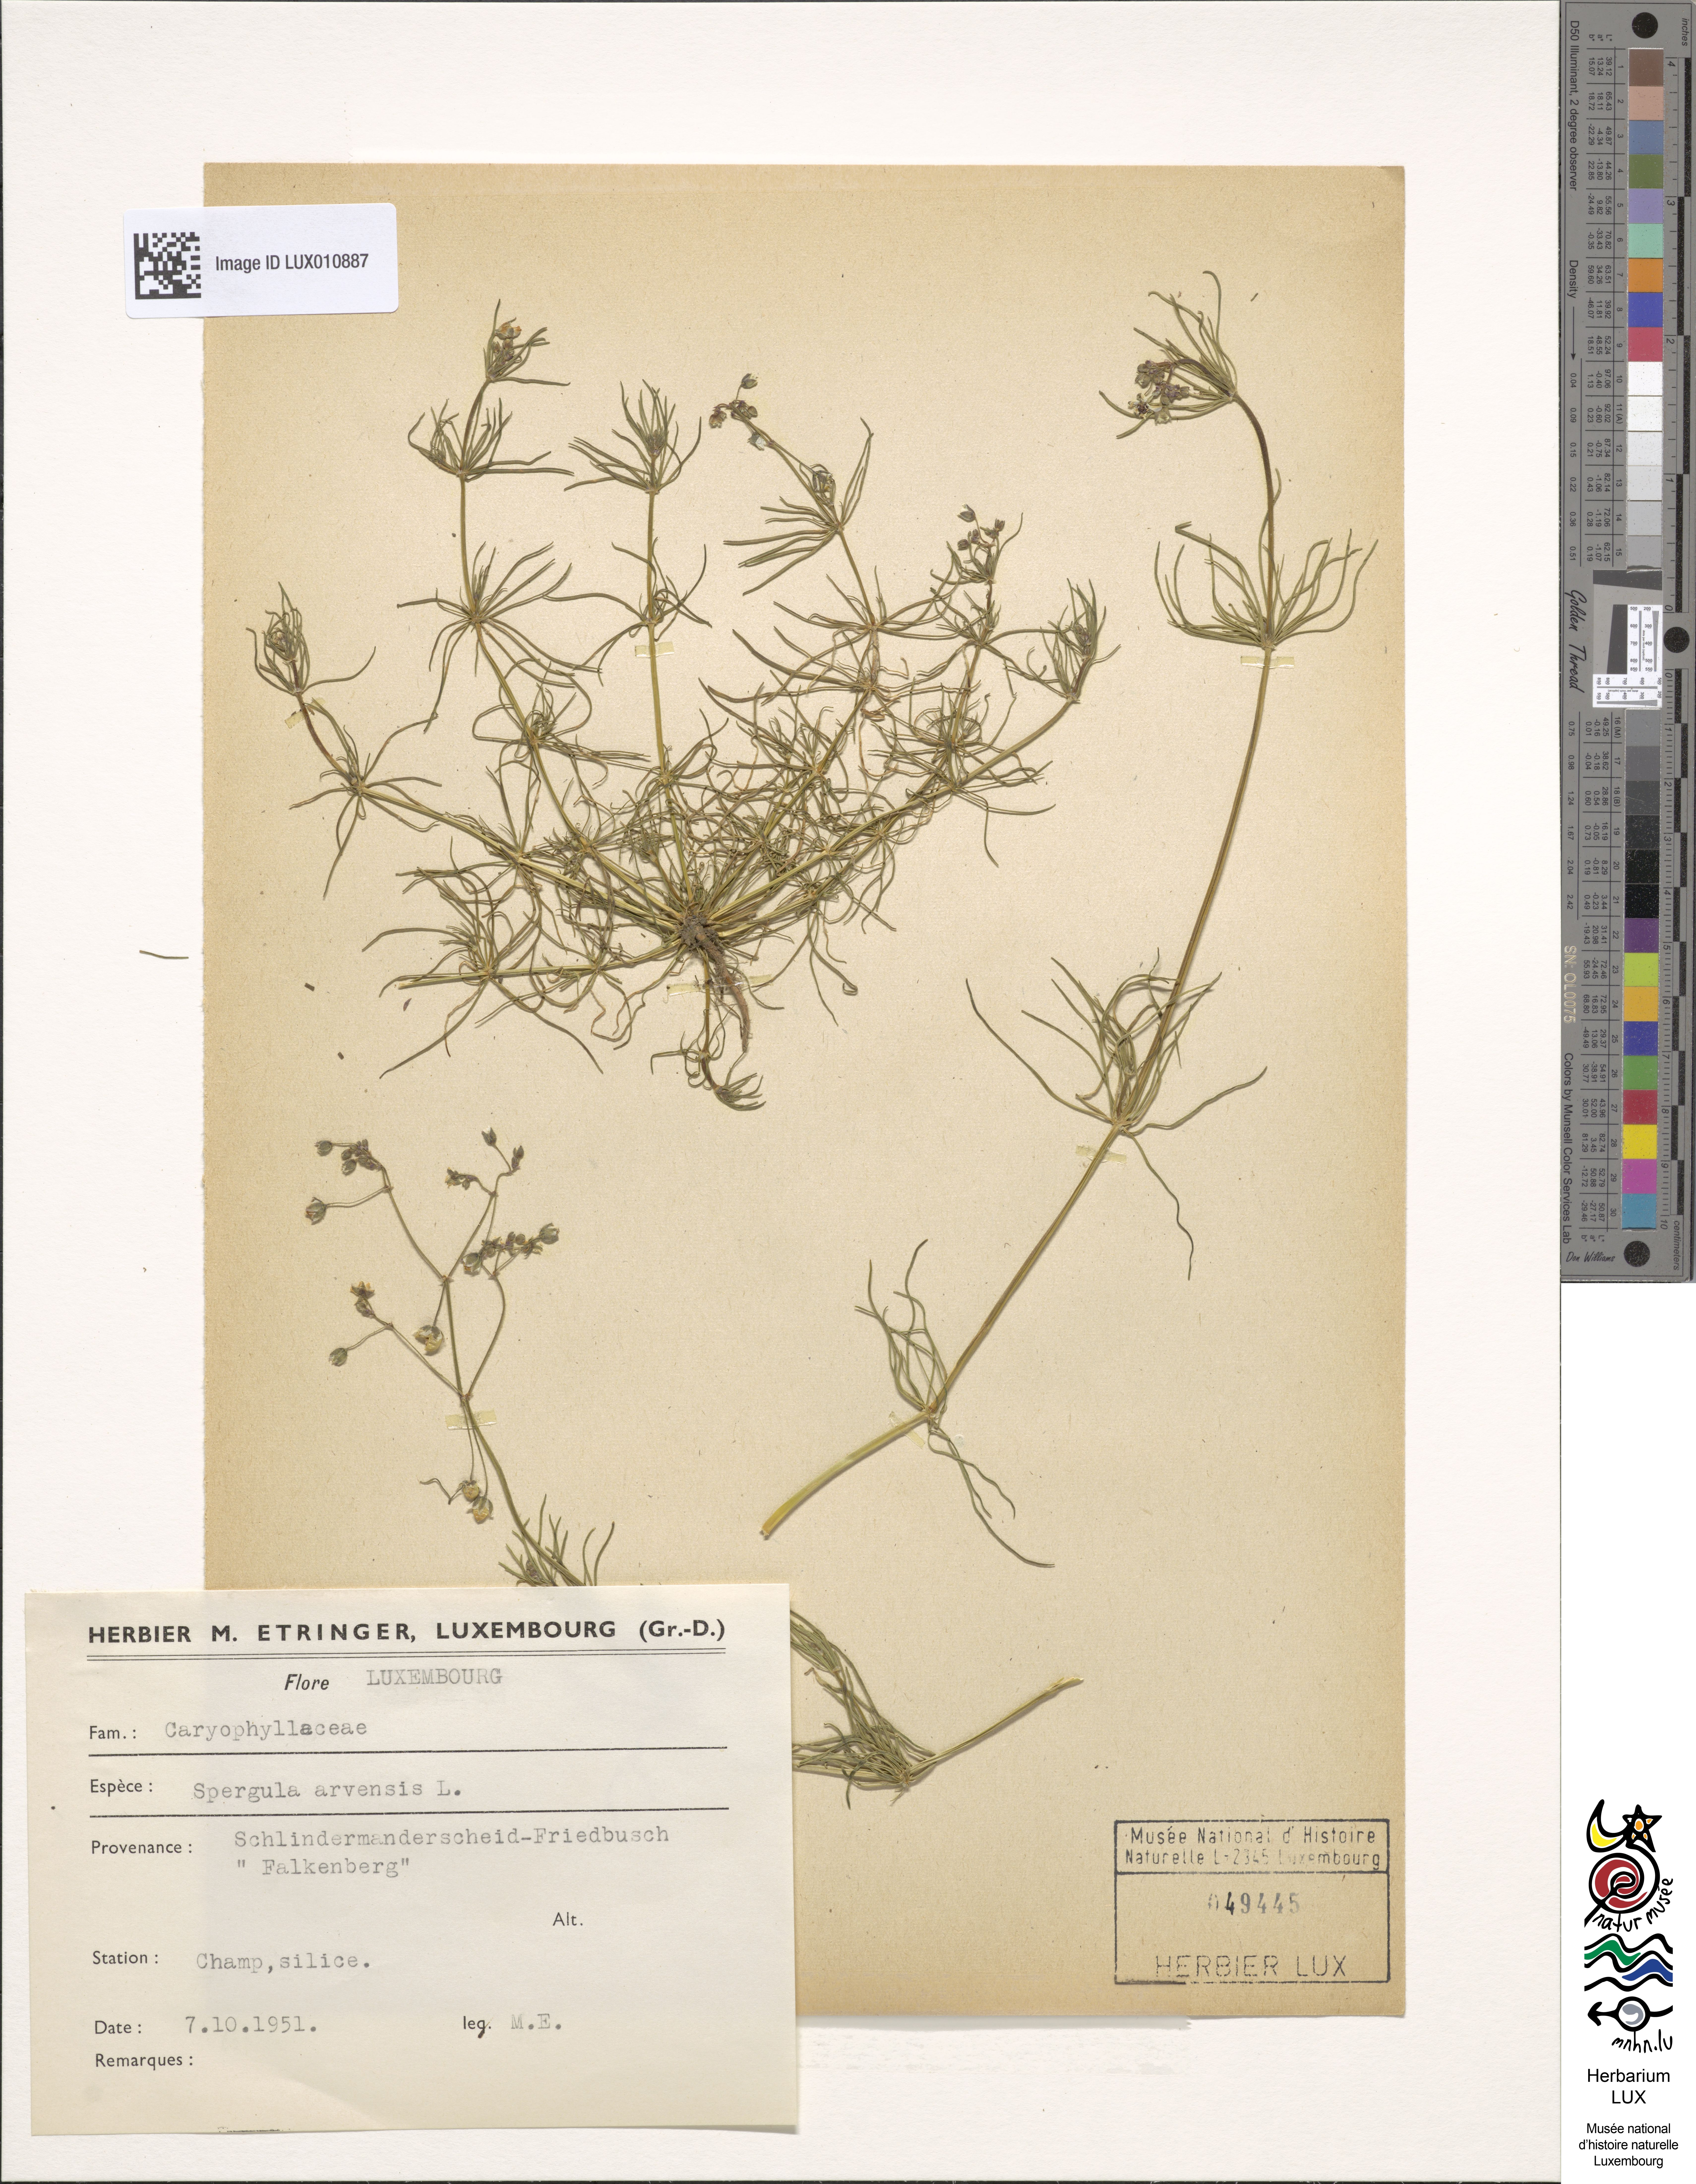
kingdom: Plantae
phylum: Tracheophyta
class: Magnoliopsida
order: Caryophyllales
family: Caryophyllaceae
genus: Spergula
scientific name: Spergula arvensis
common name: Corn spurrey
